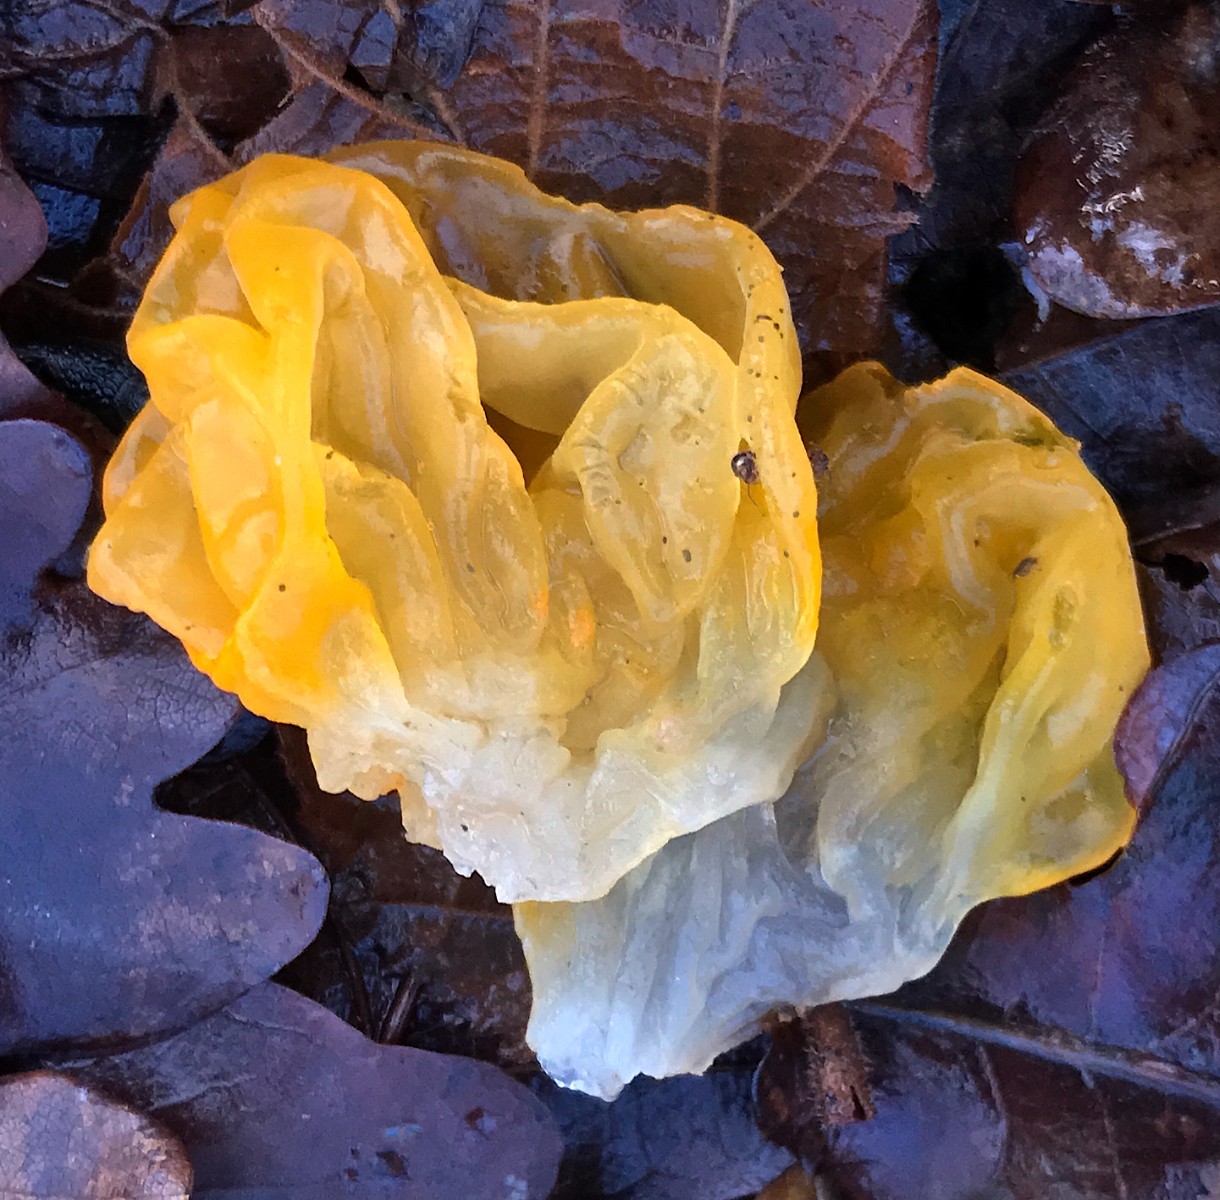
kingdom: Fungi
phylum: Basidiomycota
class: Tremellomycetes
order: Tremellales
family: Tremellaceae
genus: Tremella
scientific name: Tremella mesenterica
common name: gul bævresvamp
